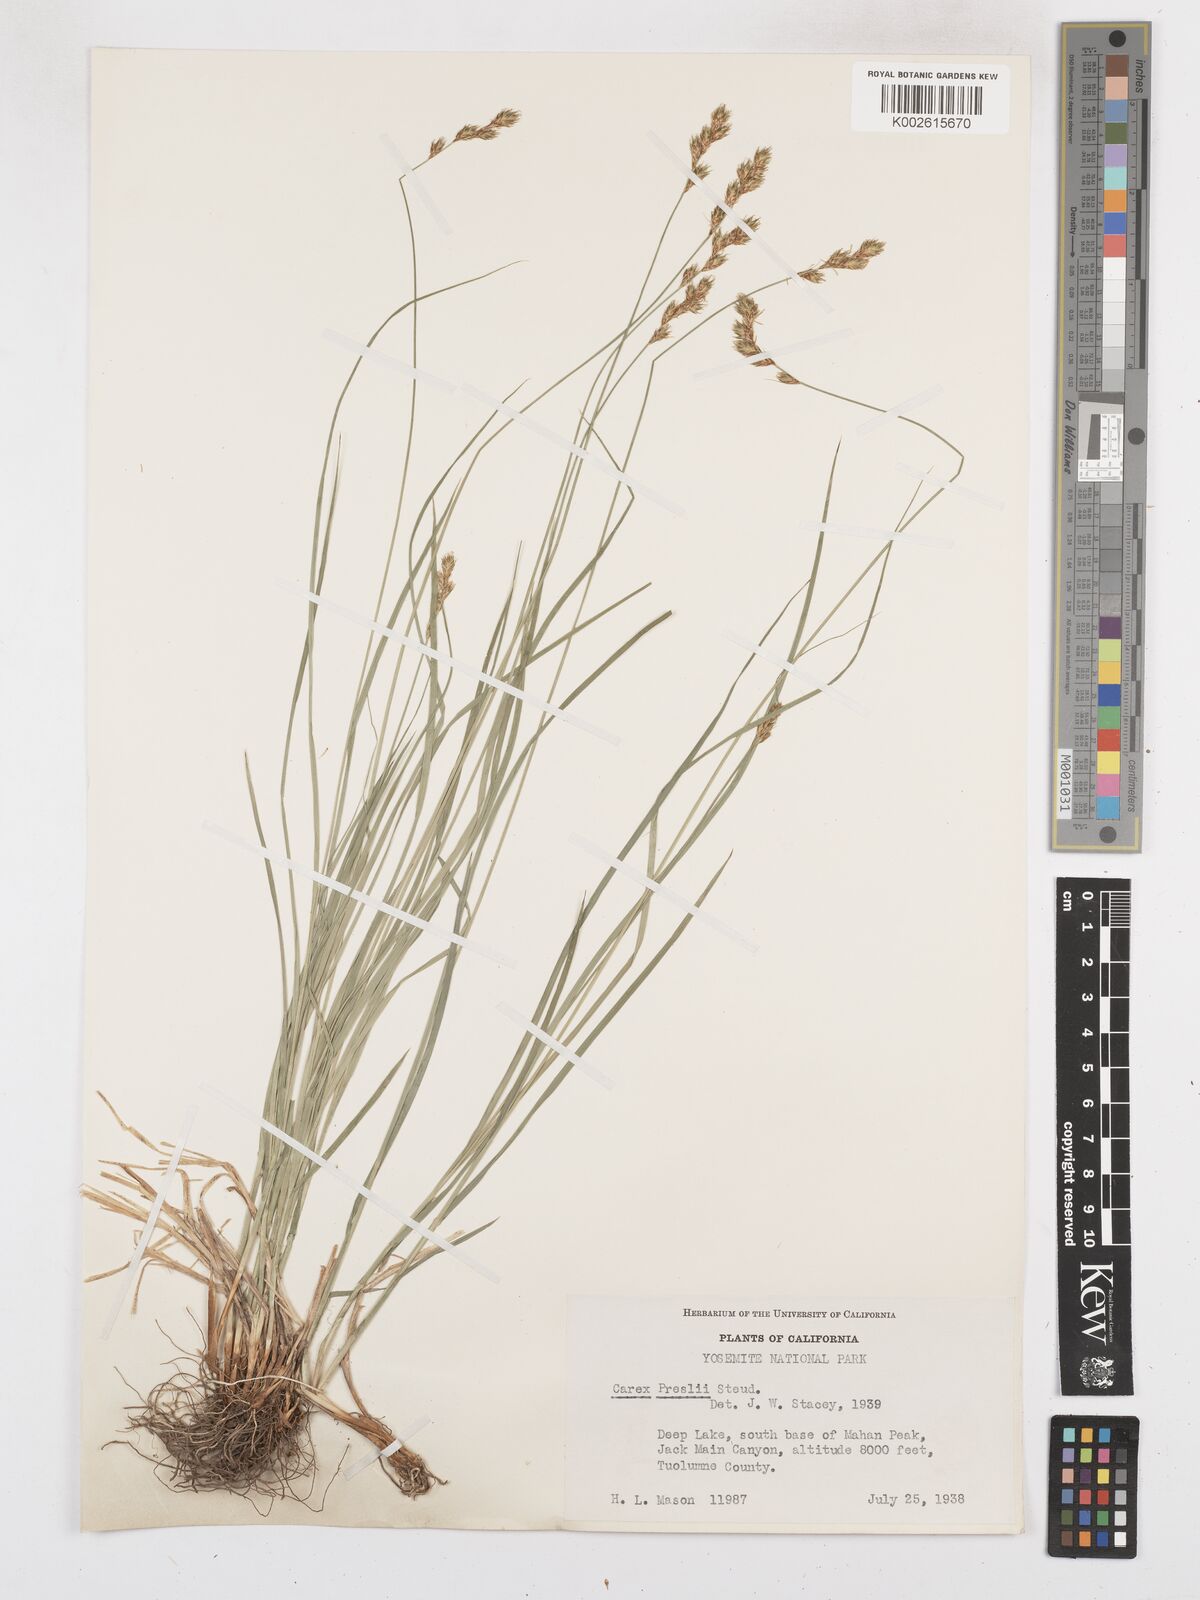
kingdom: Plantae
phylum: Tracheophyta
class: Liliopsida
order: Poales
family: Cyperaceae
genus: Carex
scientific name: Carex preslii
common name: Presl's sedge
